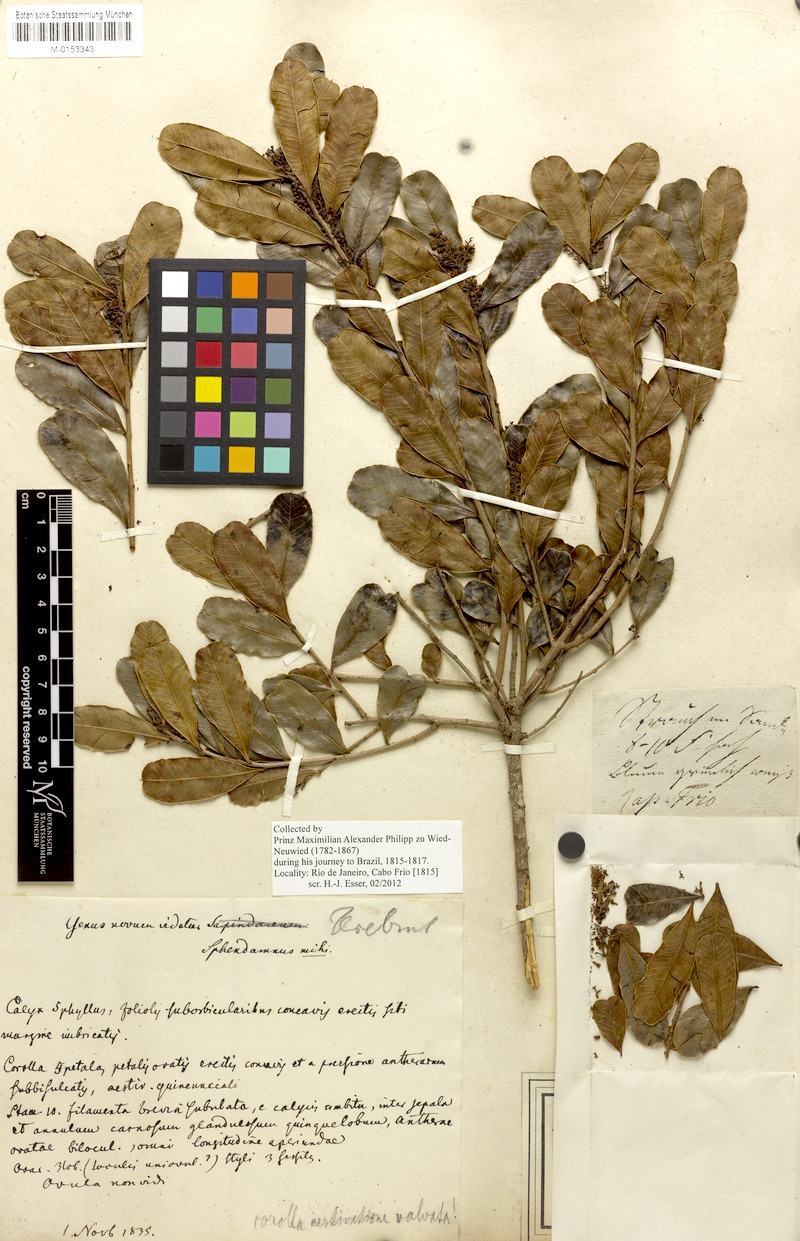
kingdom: Plantae
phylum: Tracheophyta
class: Magnoliopsida
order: Sapindales
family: Anacardiaceae
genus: Lithraea
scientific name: Lithraea brasiliensis
